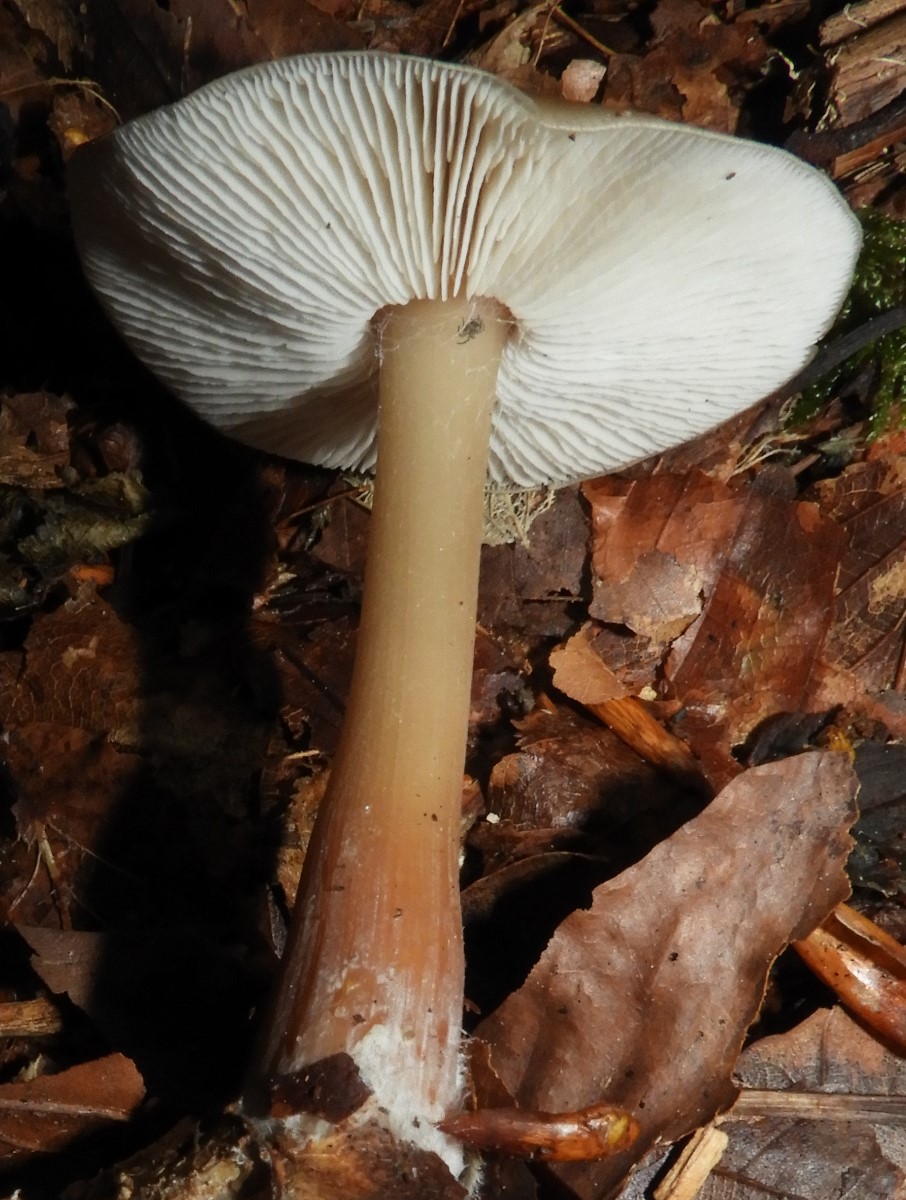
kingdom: Fungi
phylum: Basidiomycota
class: Agaricomycetes
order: Agaricales
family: Omphalotaceae
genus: Rhodocollybia
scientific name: Rhodocollybia asema
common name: horngrå fladhat
